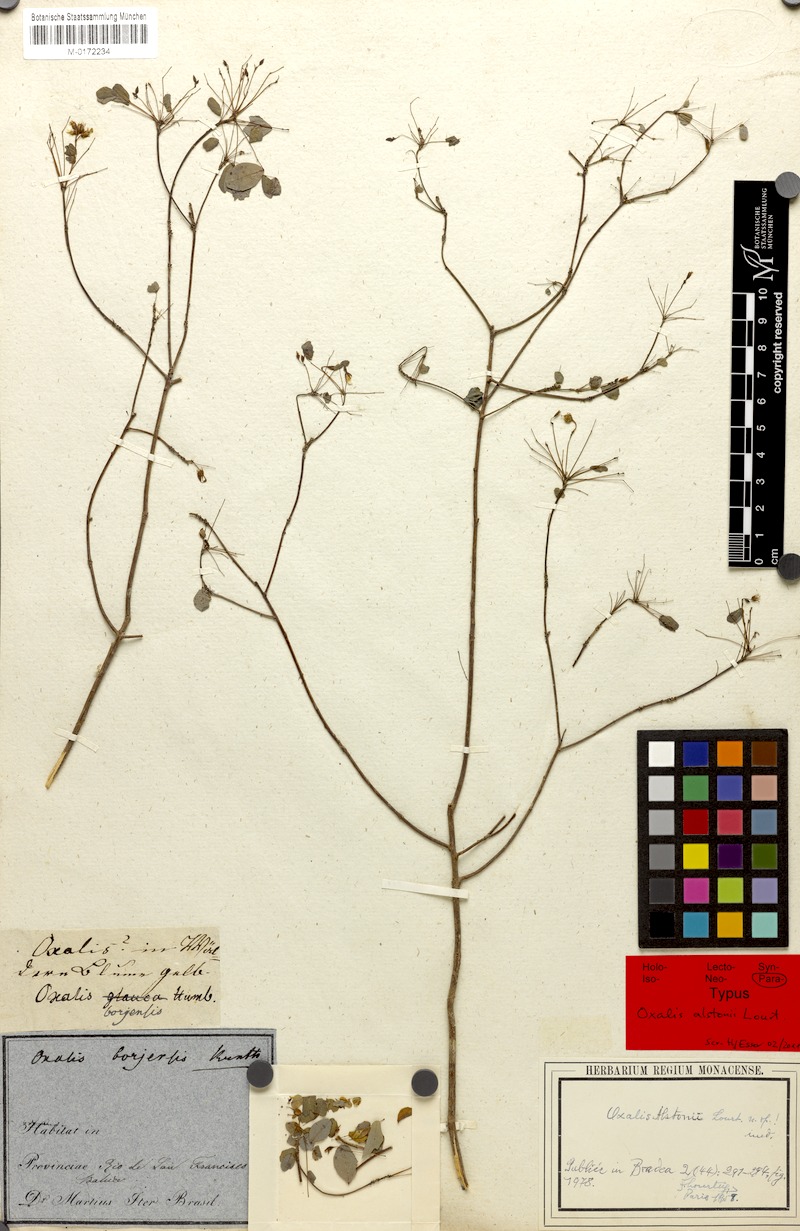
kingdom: Plantae
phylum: Tracheophyta
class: Magnoliopsida
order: Oxalidales
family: Oxalidaceae
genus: Oxalis
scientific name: Oxalis alstonii
